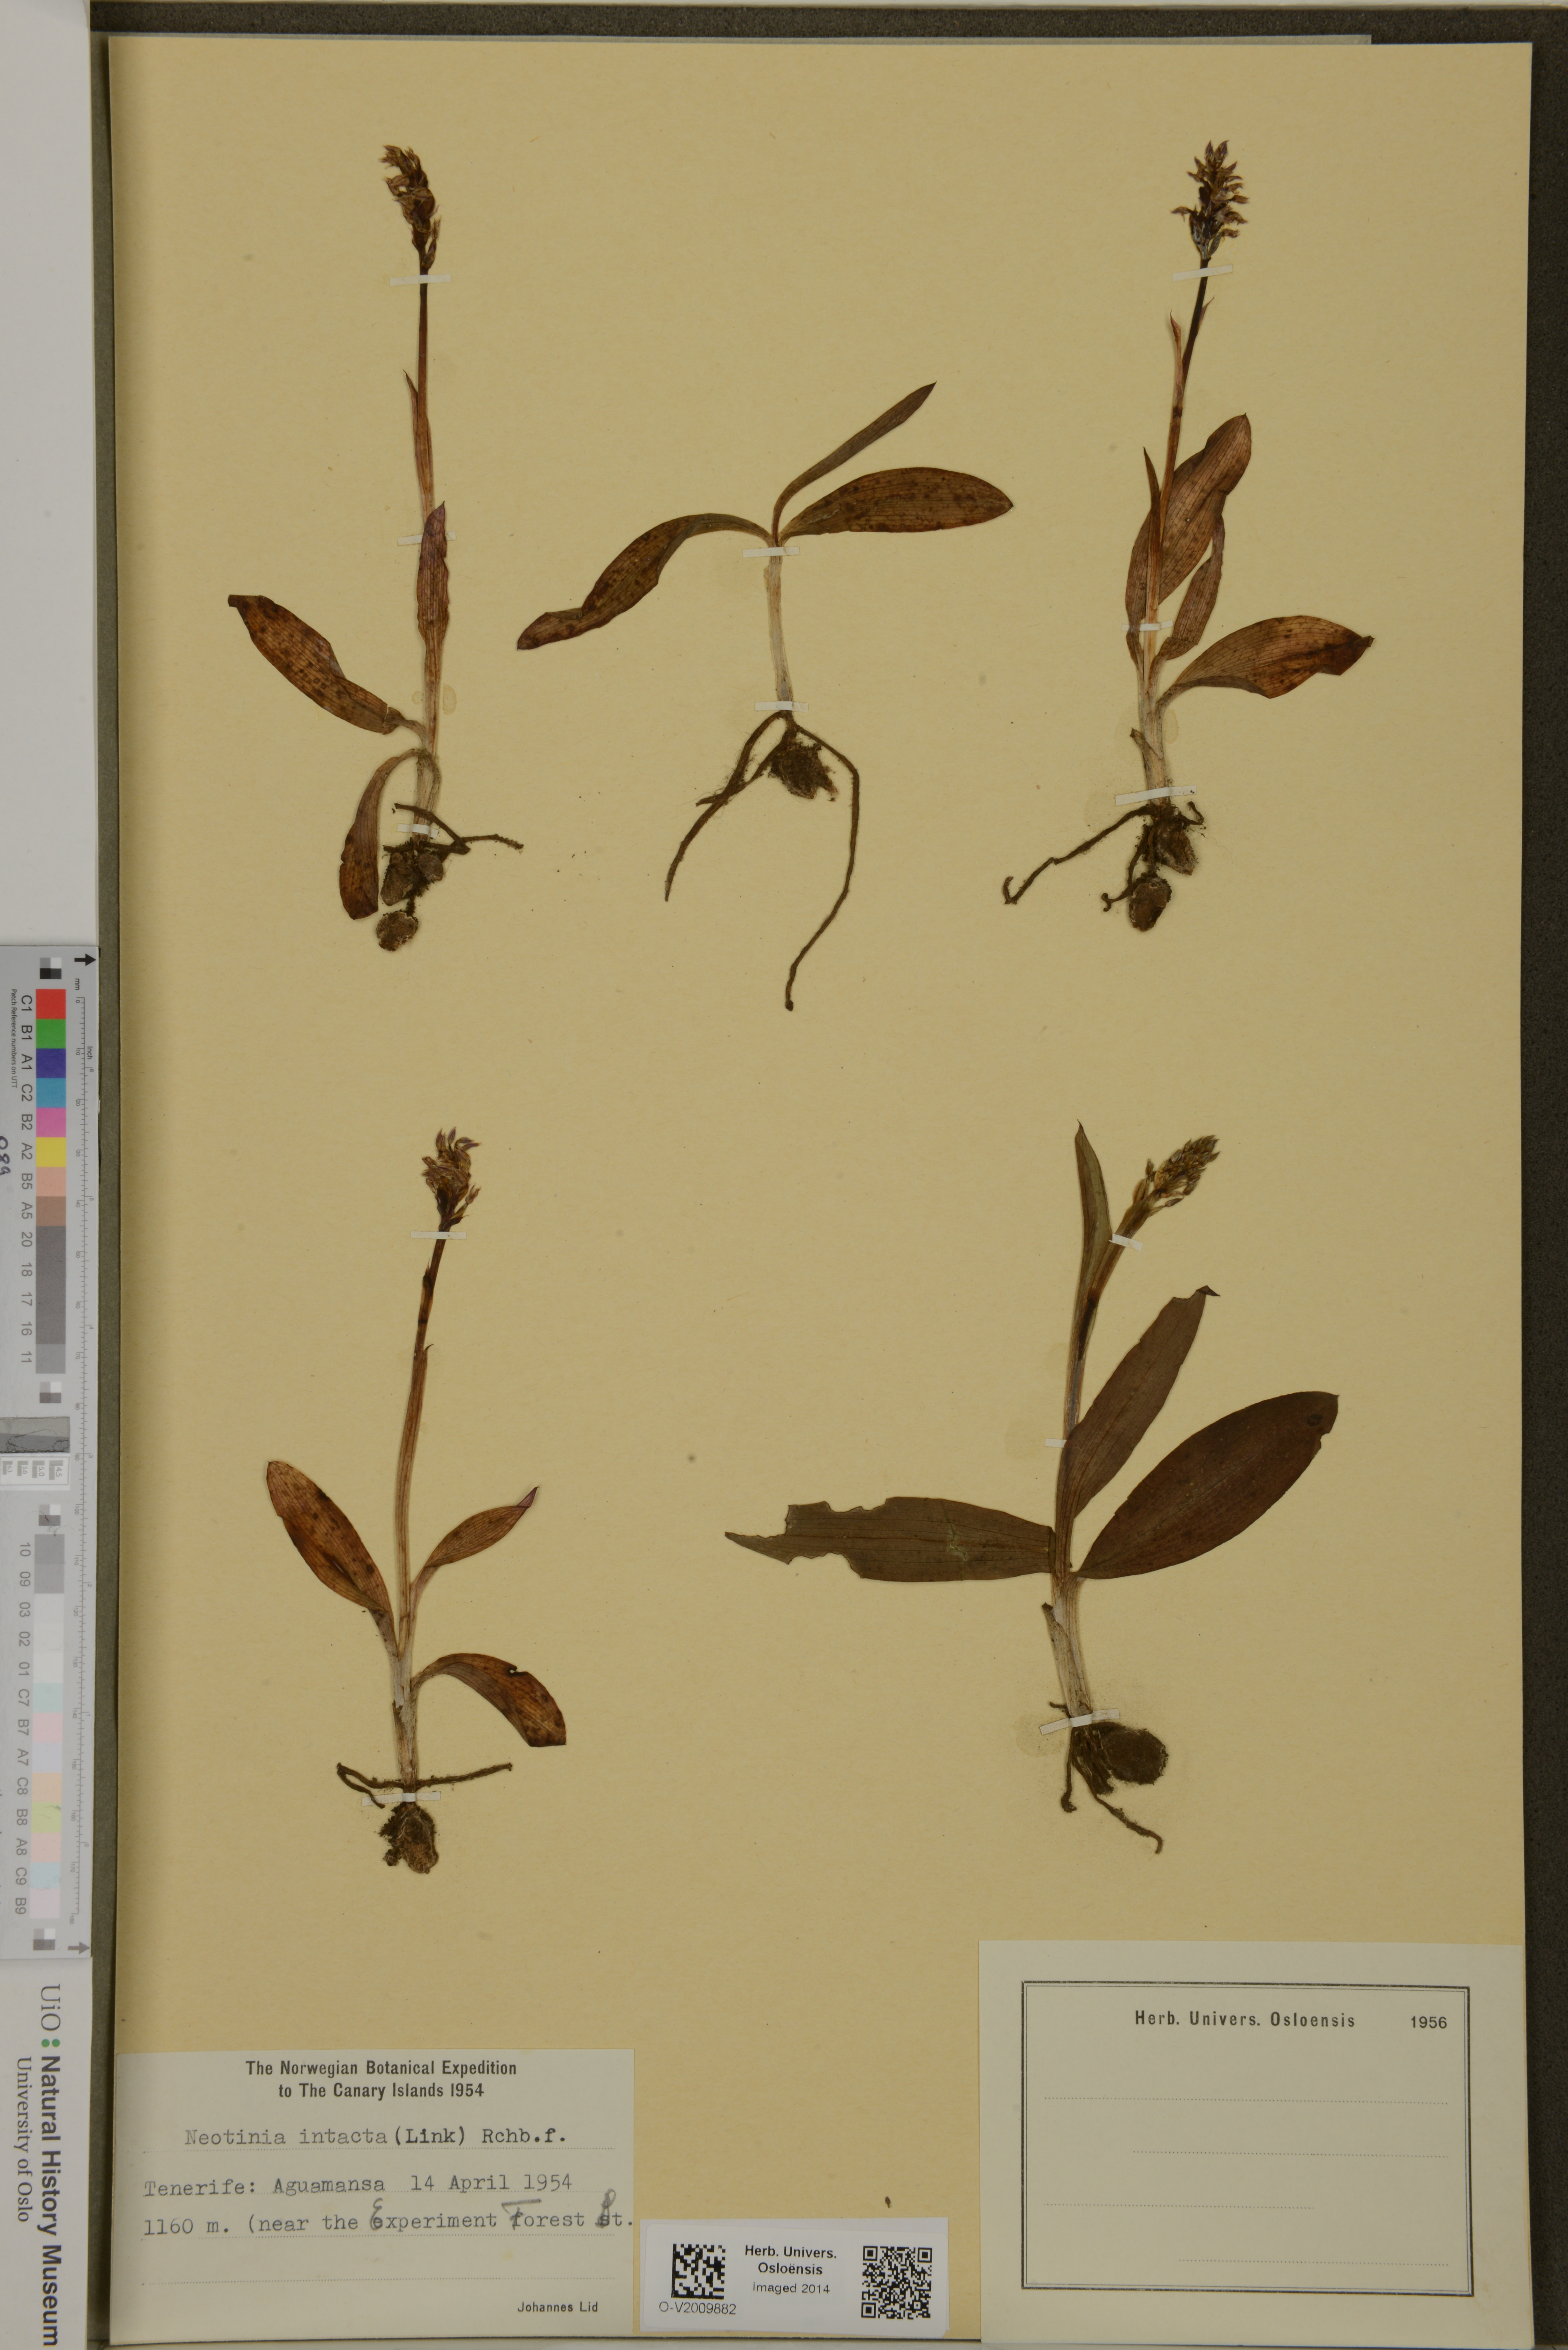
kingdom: Plantae
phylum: Tracheophyta
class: Liliopsida
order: Asparagales
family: Orchidaceae
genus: Neotinea
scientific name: Neotinea maculata
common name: Dense-flowered orchid
